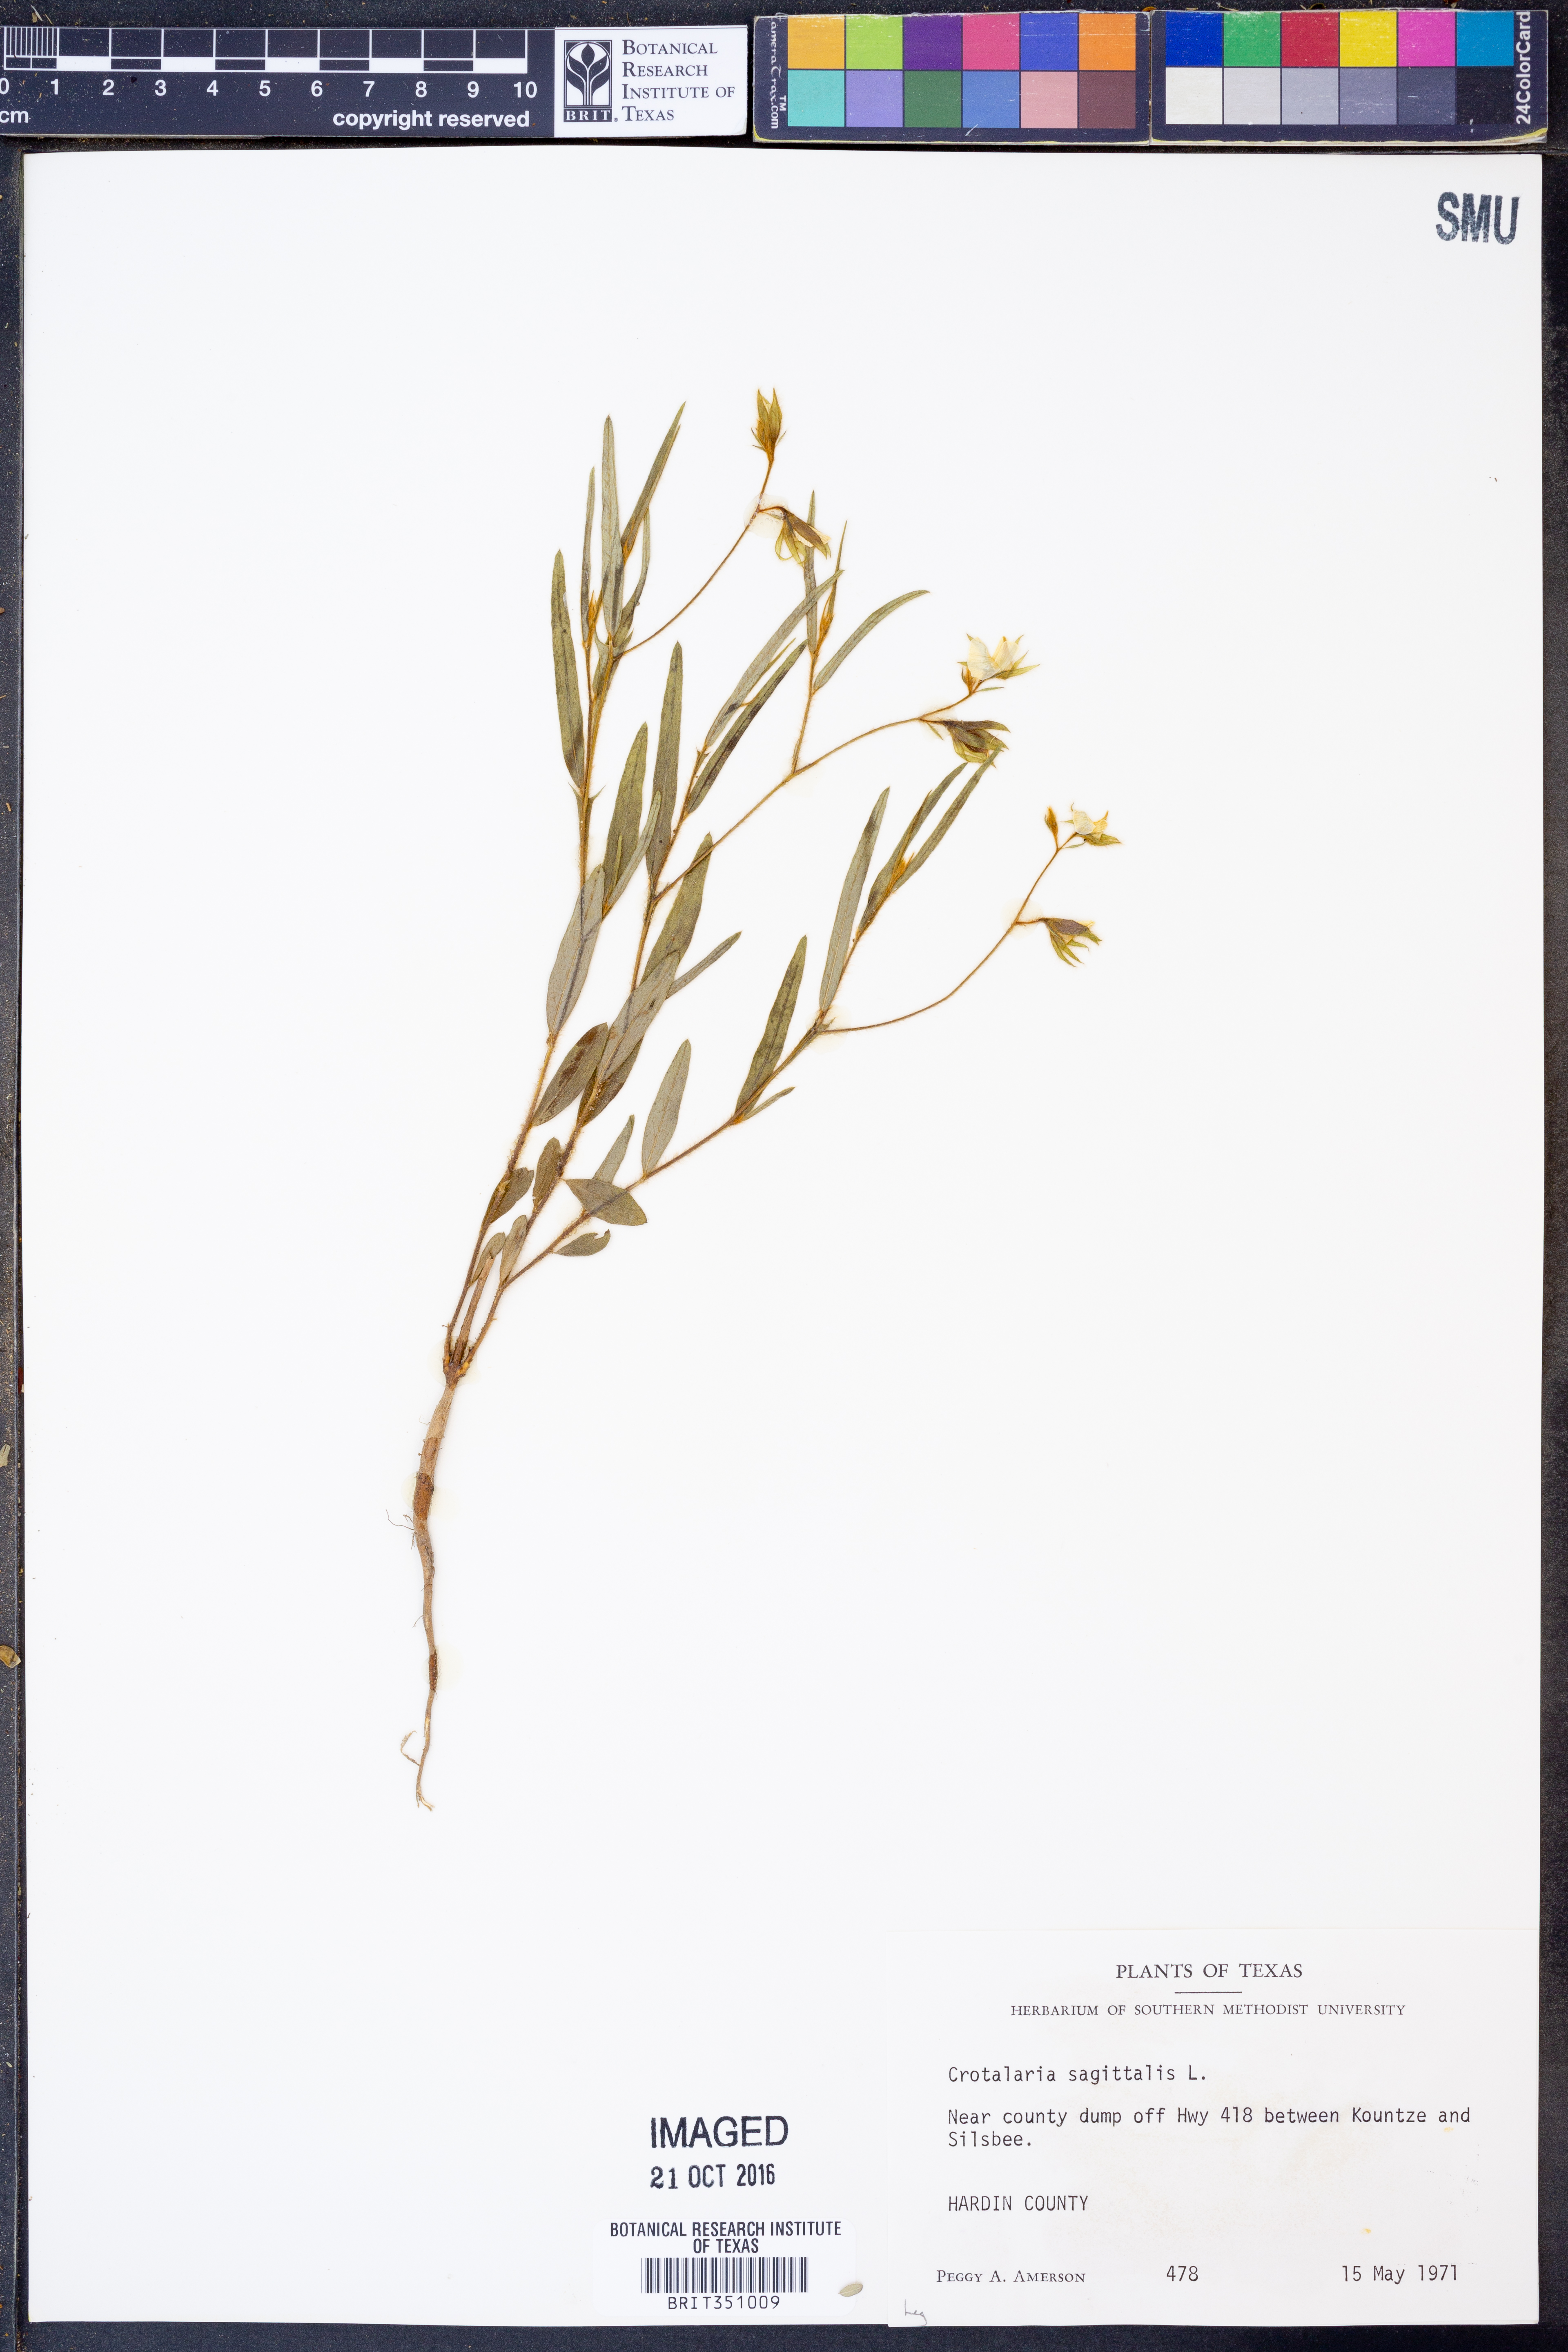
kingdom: Plantae
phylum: Tracheophyta
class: Magnoliopsida
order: Fabales
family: Fabaceae
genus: Crotalaria
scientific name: Crotalaria sagittalis
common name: Arrowhead rattlebox
